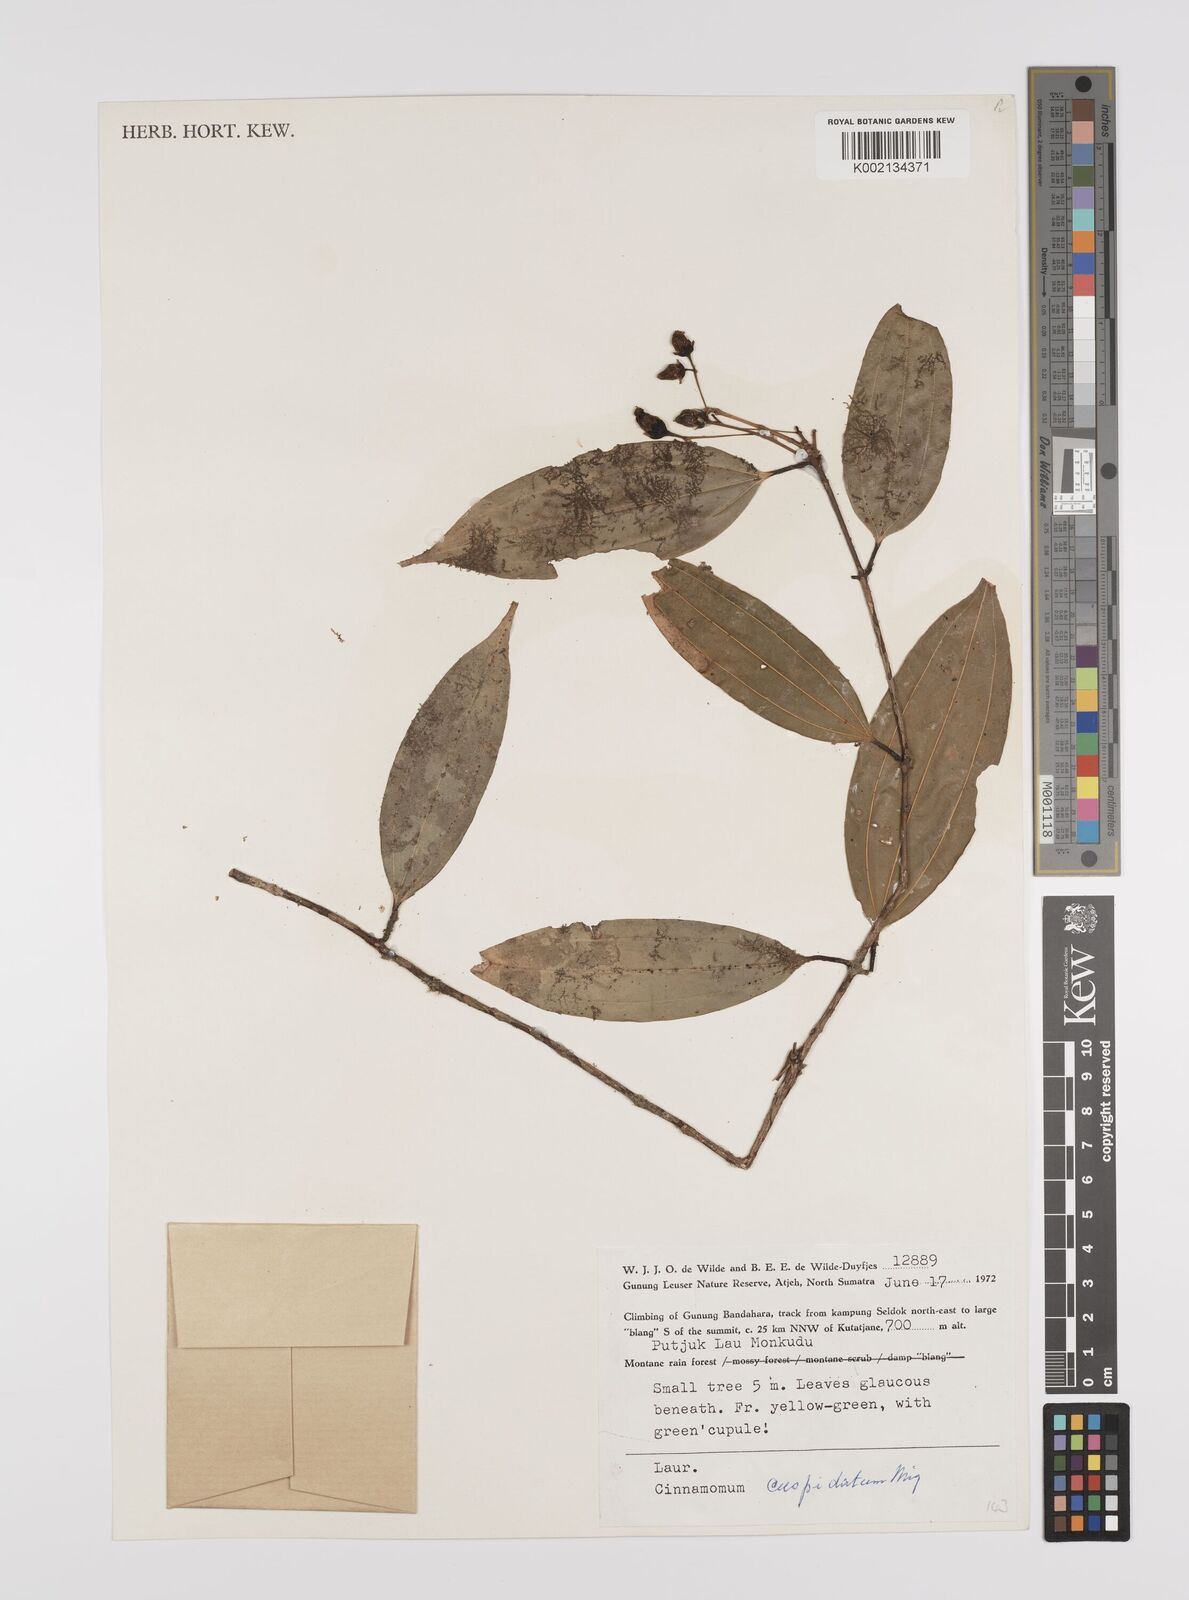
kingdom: Plantae
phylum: Tracheophyta
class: Magnoliopsida
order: Laurales
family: Lauraceae
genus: Cinnamomum
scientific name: Cinnamomum cuspidatum
